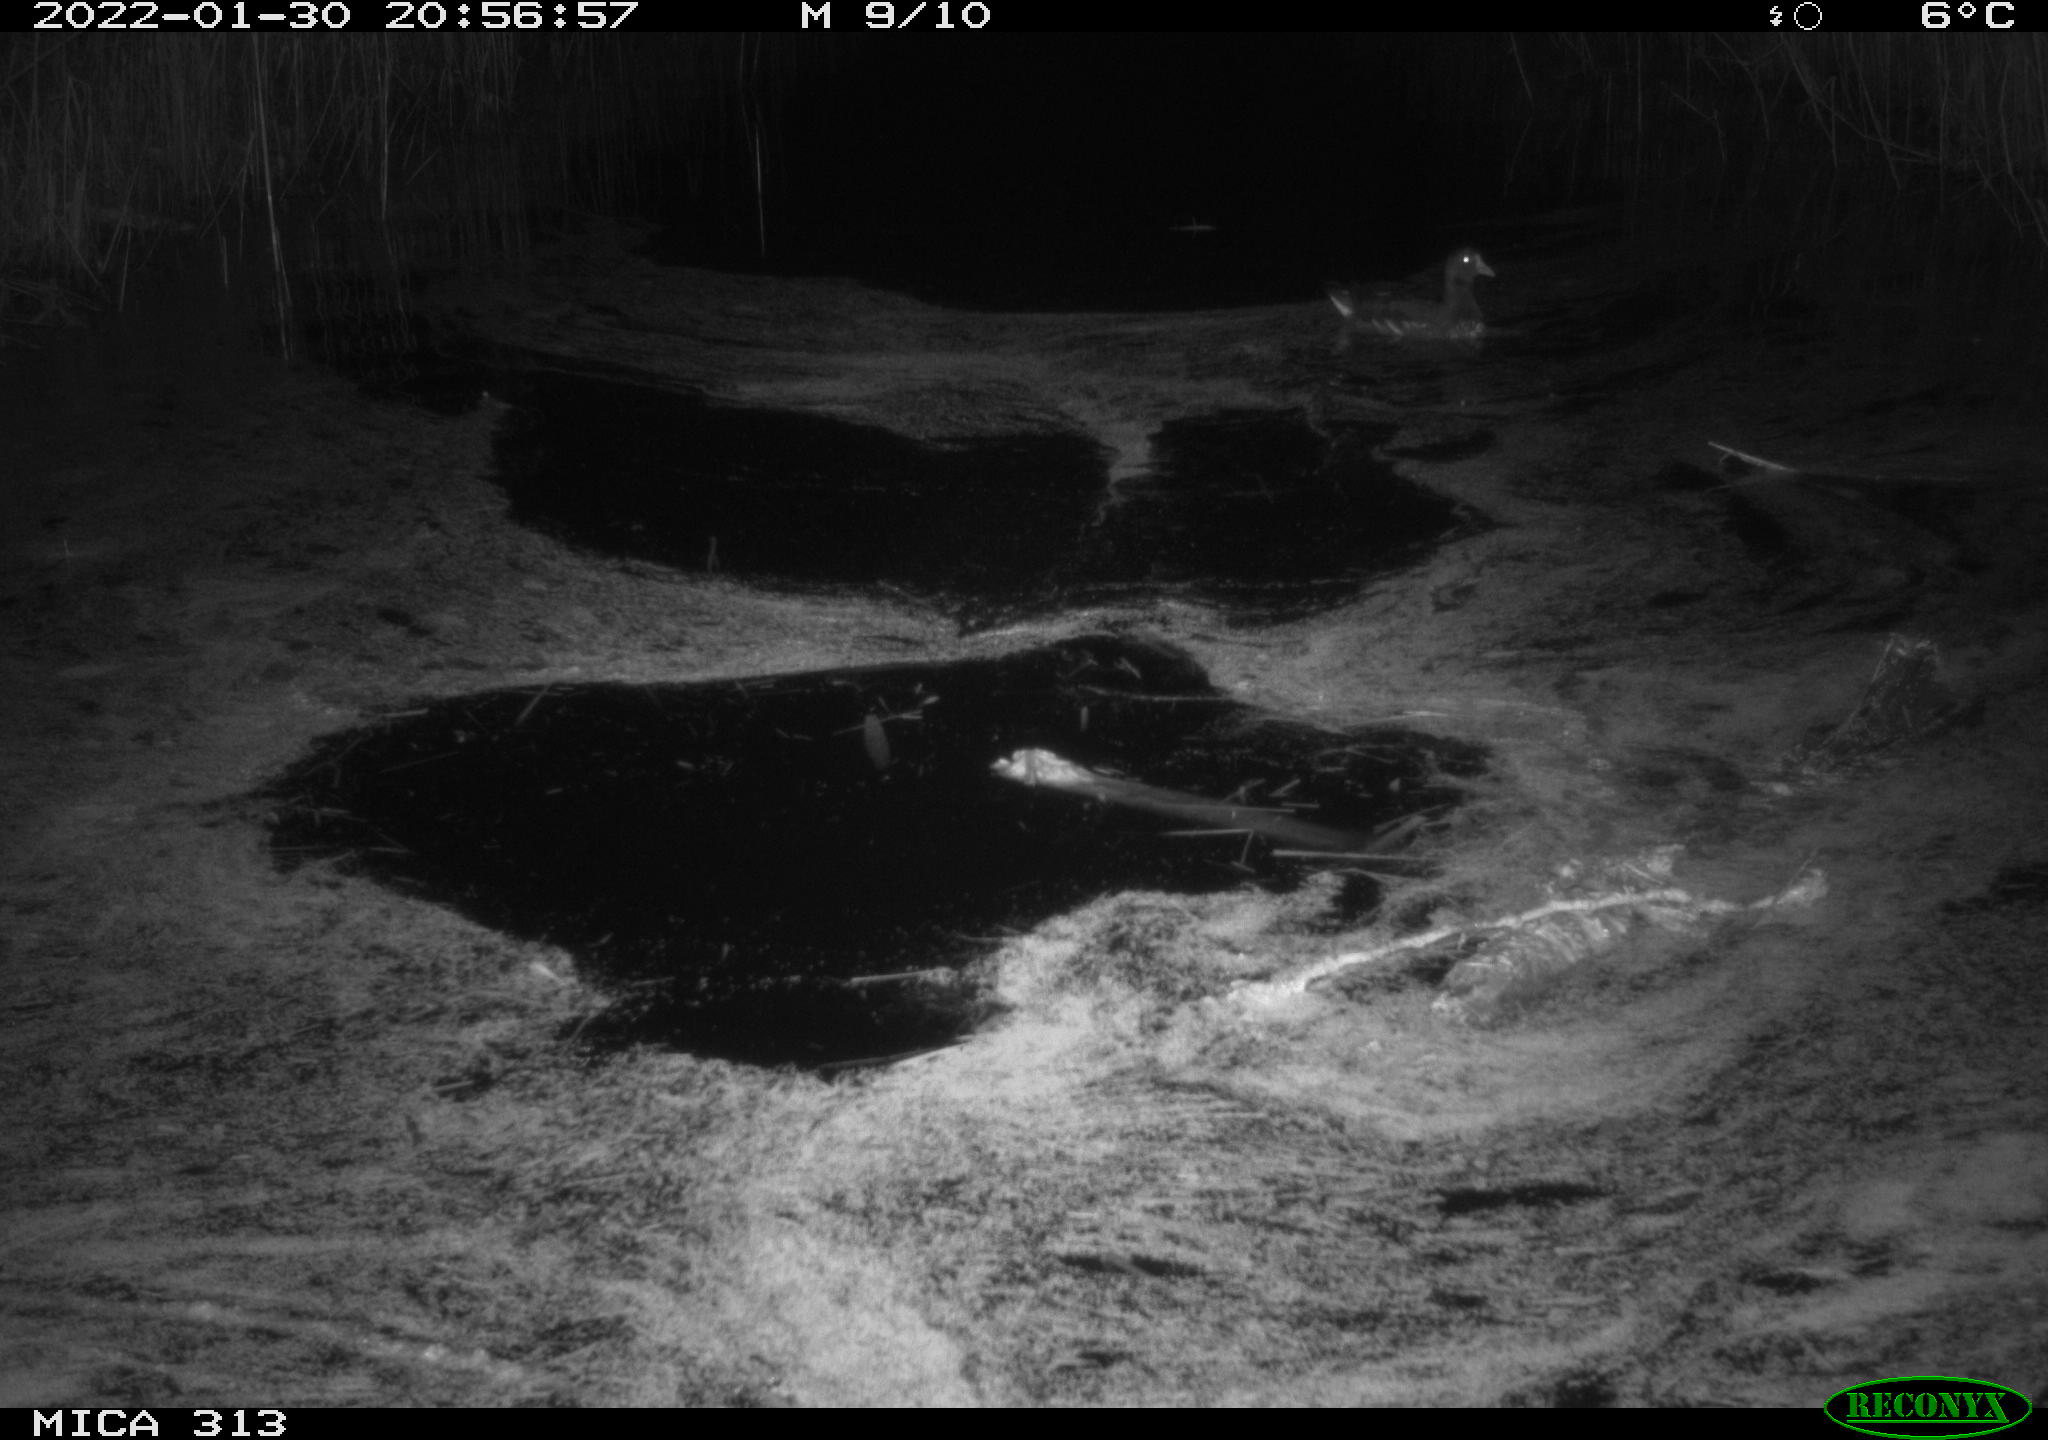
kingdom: Animalia
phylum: Chordata
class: Aves
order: Anseriformes
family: Anatidae
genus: Anas
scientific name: Anas
